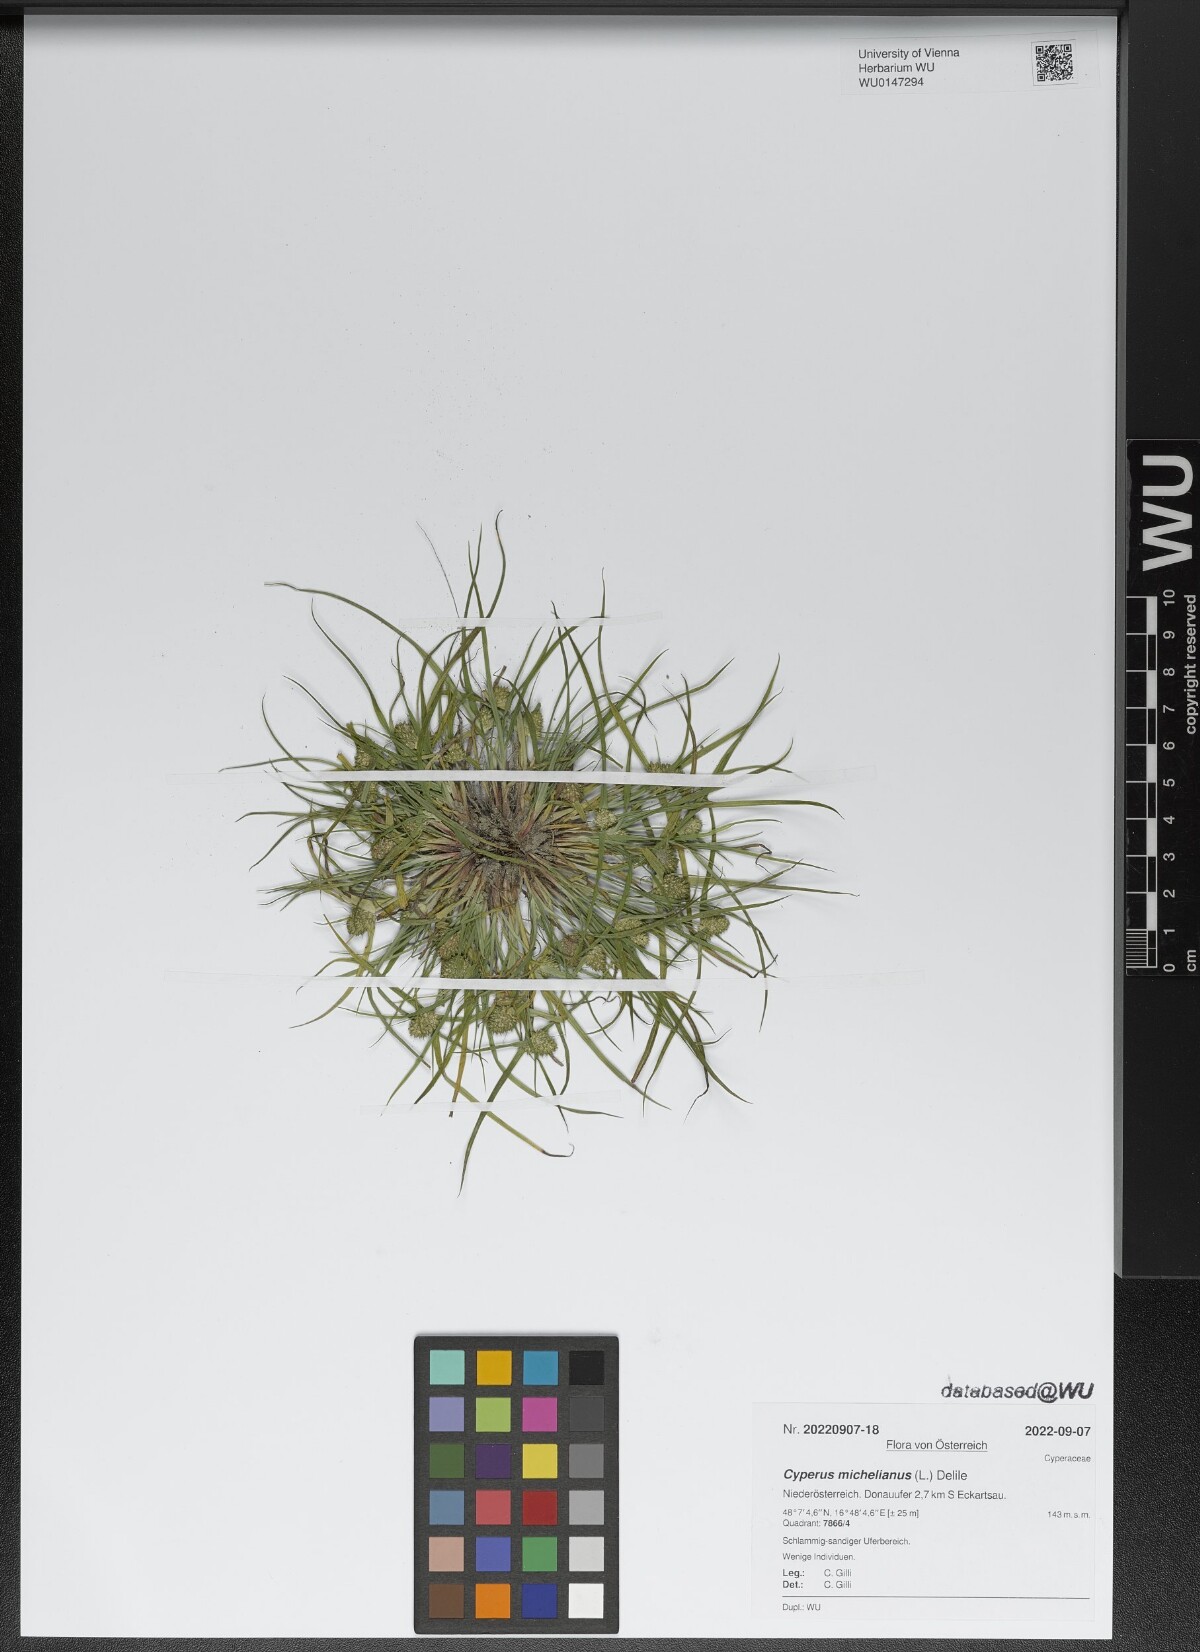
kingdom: Plantae
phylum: Tracheophyta
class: Liliopsida
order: Poales
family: Cyperaceae
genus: Cyperus
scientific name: Cyperus michelianus
